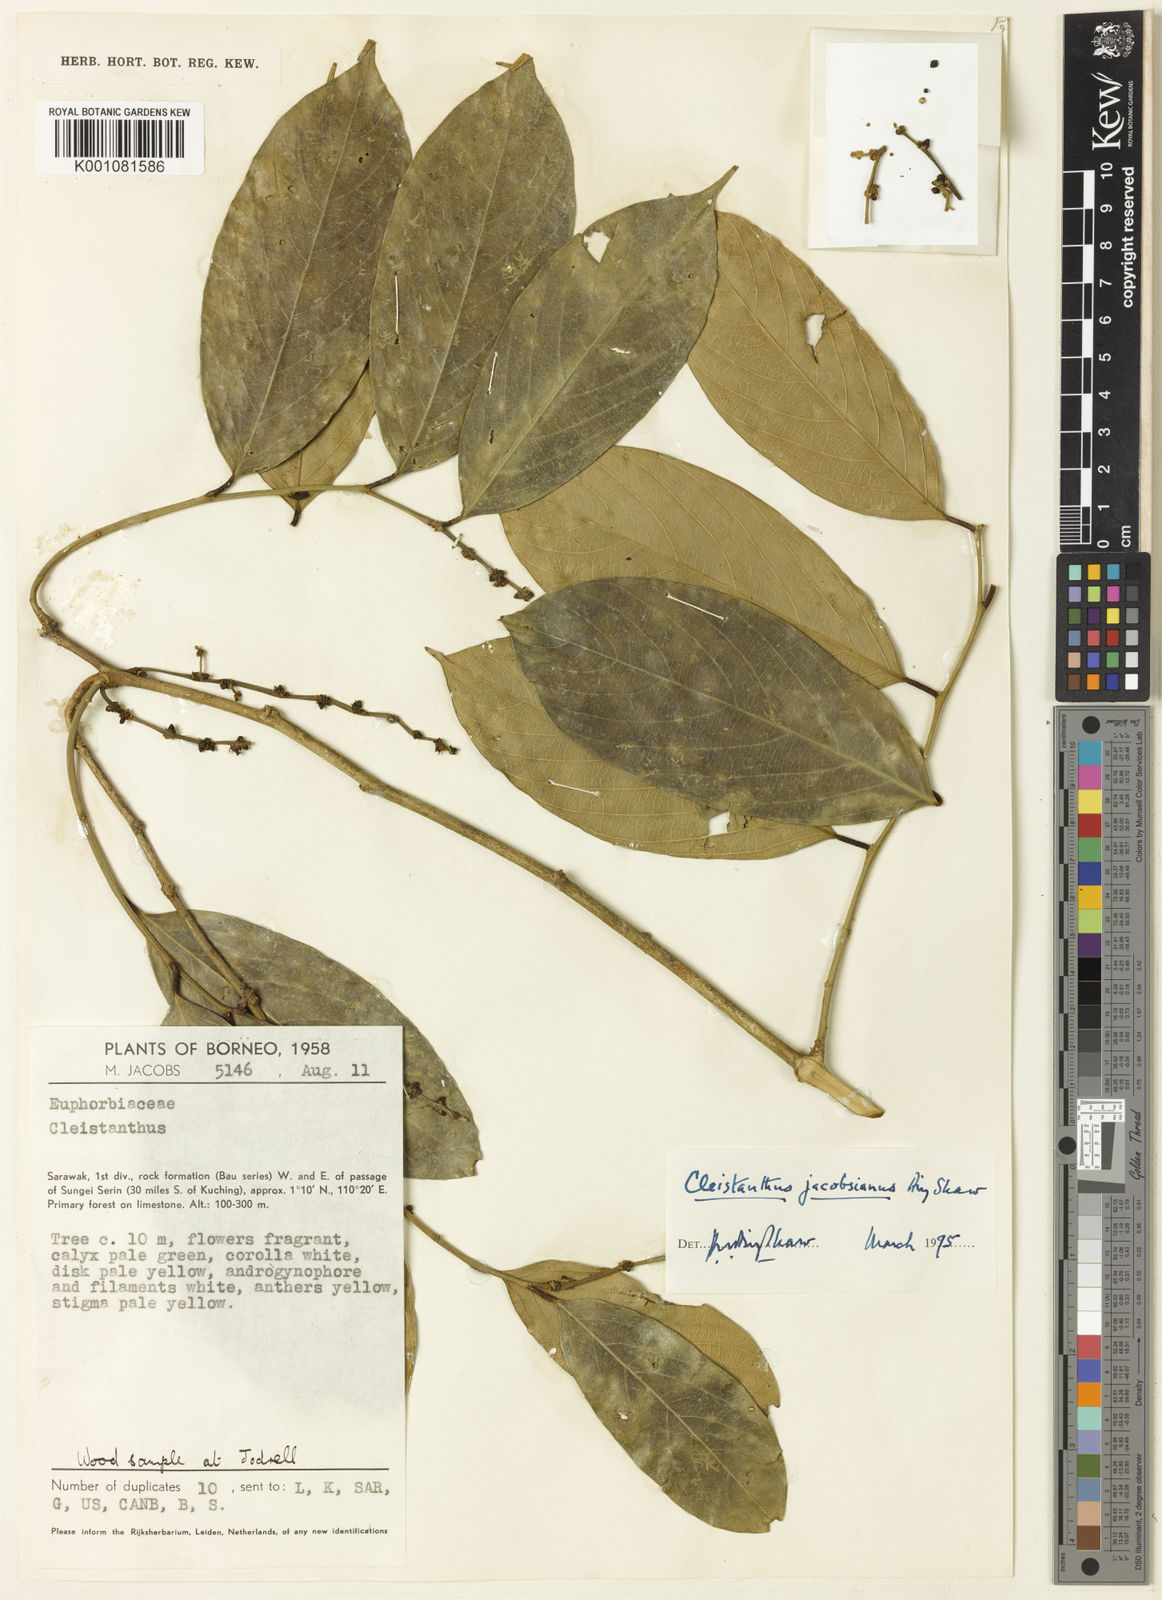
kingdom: Plantae
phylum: Tracheophyta
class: Magnoliopsida
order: Malpighiales
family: Phyllanthaceae
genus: Cleistanthus
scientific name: Cleistanthus jacobsianus
